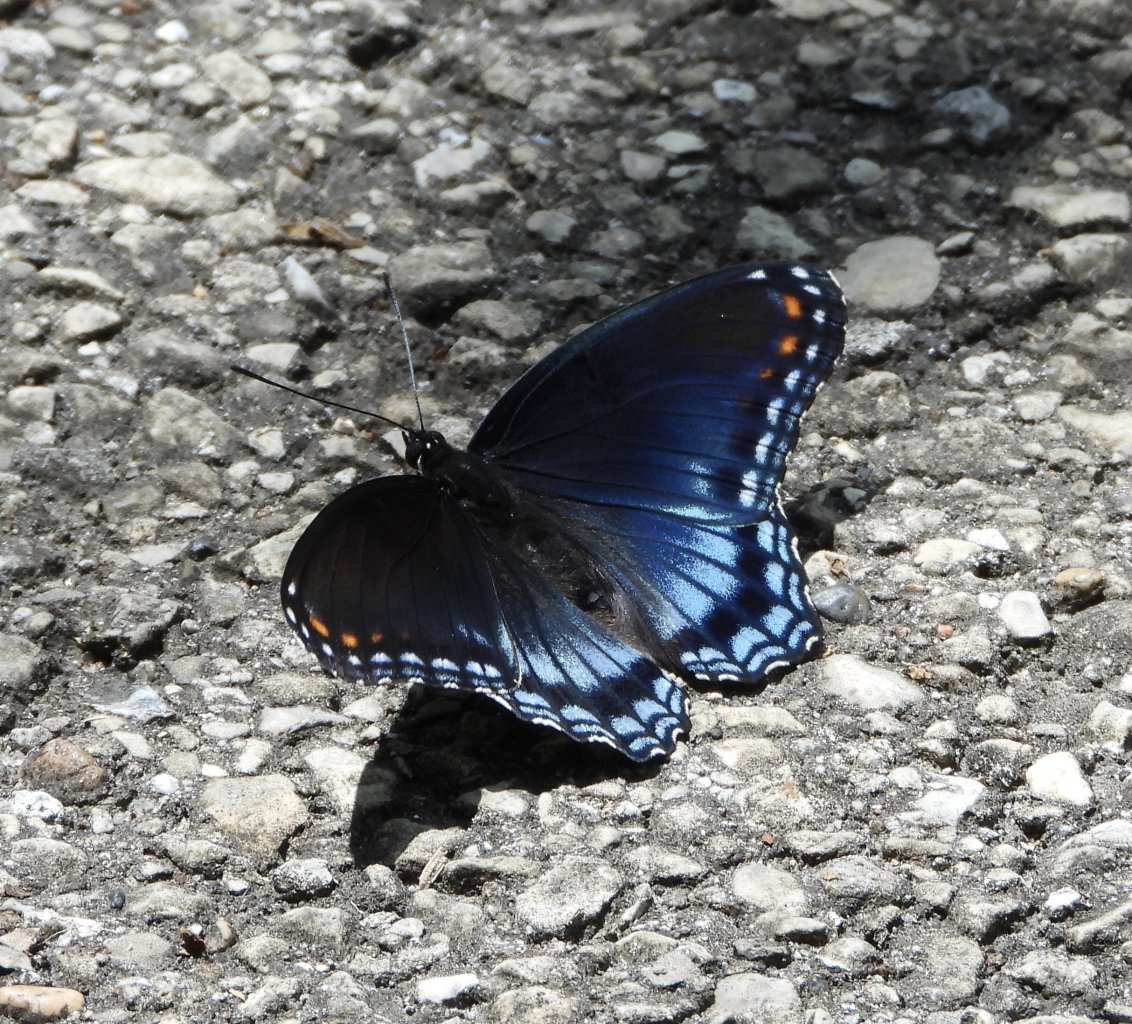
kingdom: Animalia
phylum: Arthropoda
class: Insecta
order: Lepidoptera
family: Nymphalidae
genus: Limenitis
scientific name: Limenitis arthemis
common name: Red-spotted Admiral
